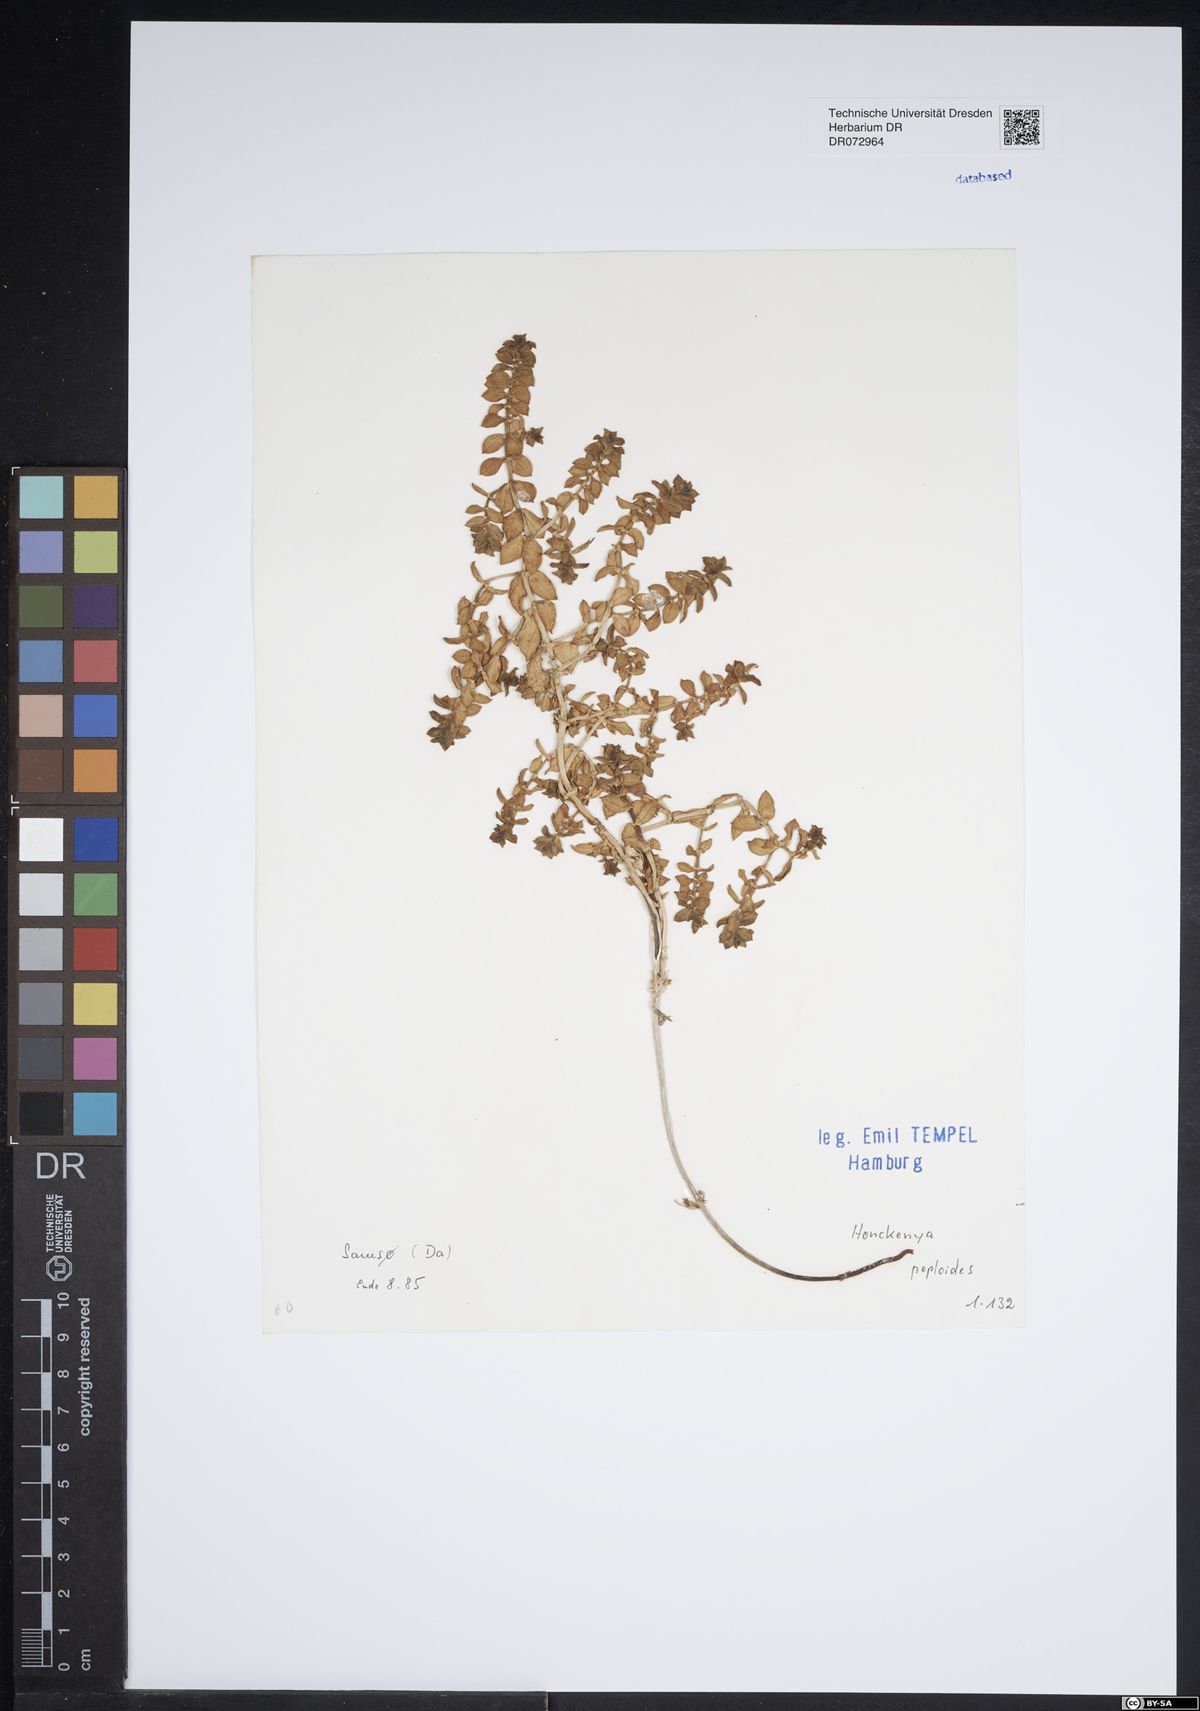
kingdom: Plantae
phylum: Tracheophyta
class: Magnoliopsida
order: Caryophyllales
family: Caryophyllaceae
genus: Honckenya
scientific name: Honckenya peploides
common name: Sea sandwort
